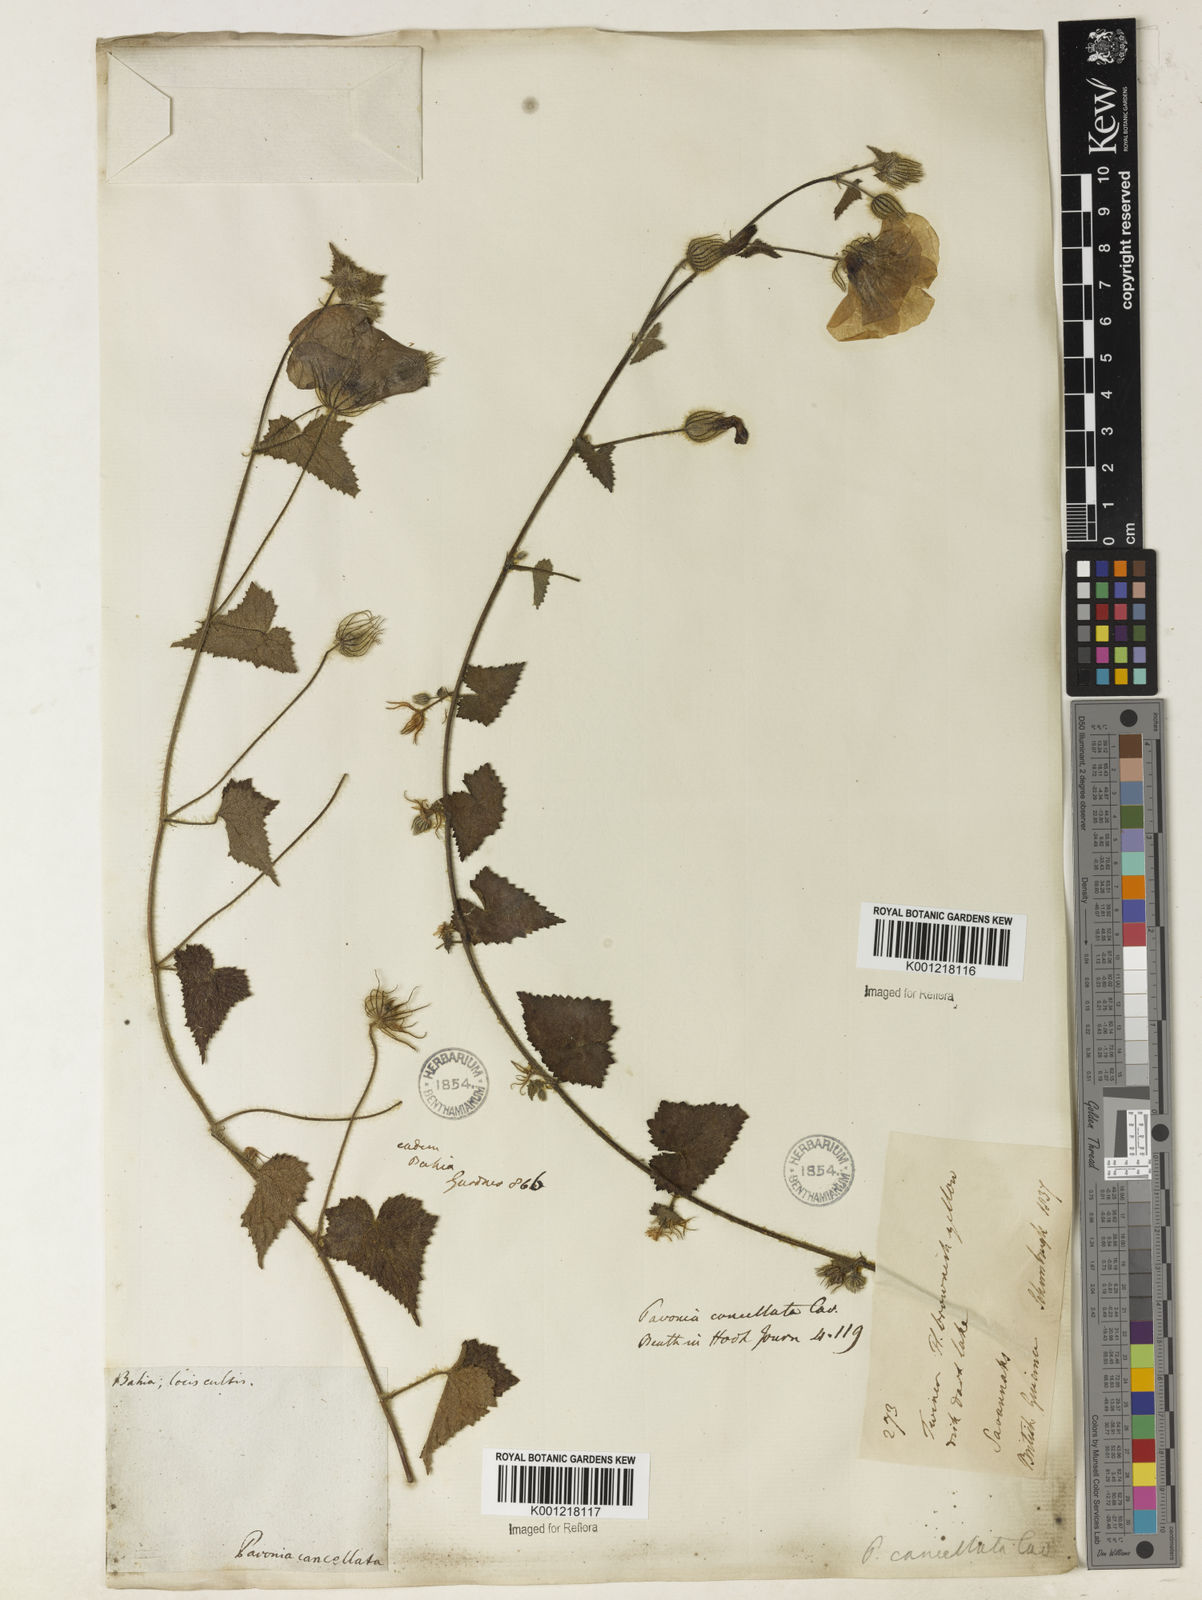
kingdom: Plantae
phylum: Tracheophyta
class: Magnoliopsida
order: Malvales
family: Malvaceae
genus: Pavonia
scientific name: Pavonia cancellata
